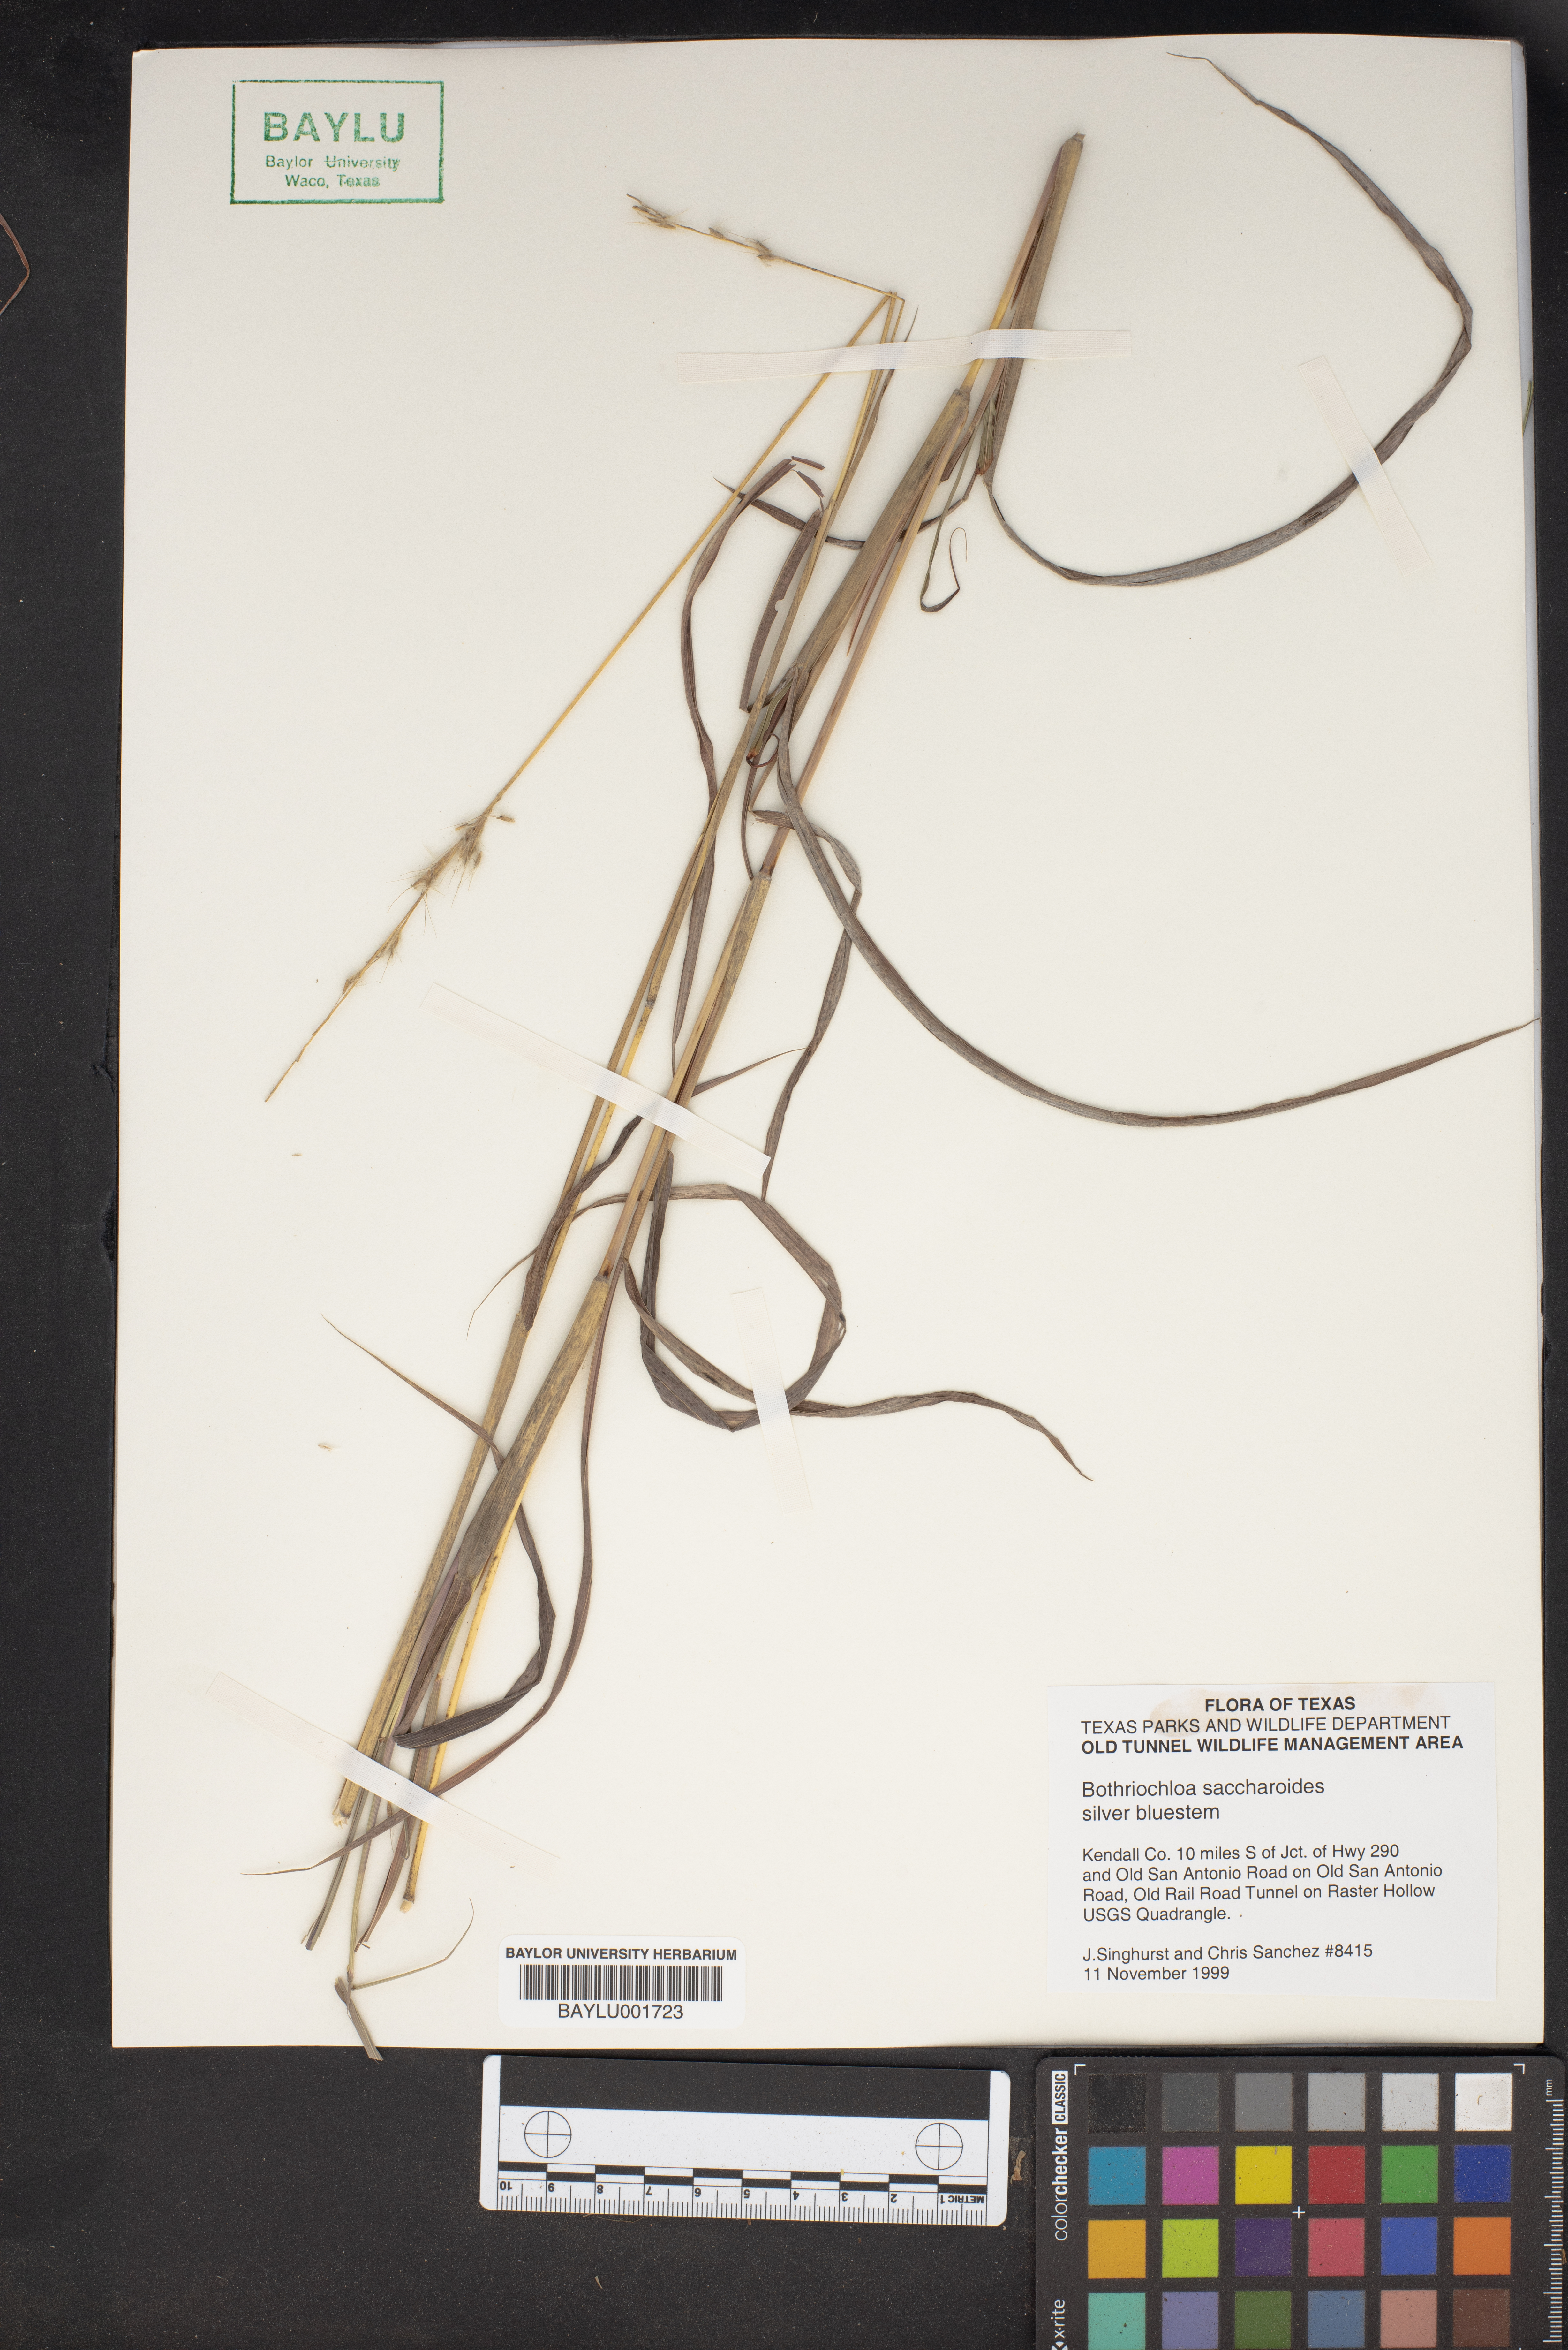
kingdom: Plantae
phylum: Tracheophyta
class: Liliopsida
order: Poales
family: Poaceae
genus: Bothriochloa
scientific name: Bothriochloa saccharoides
